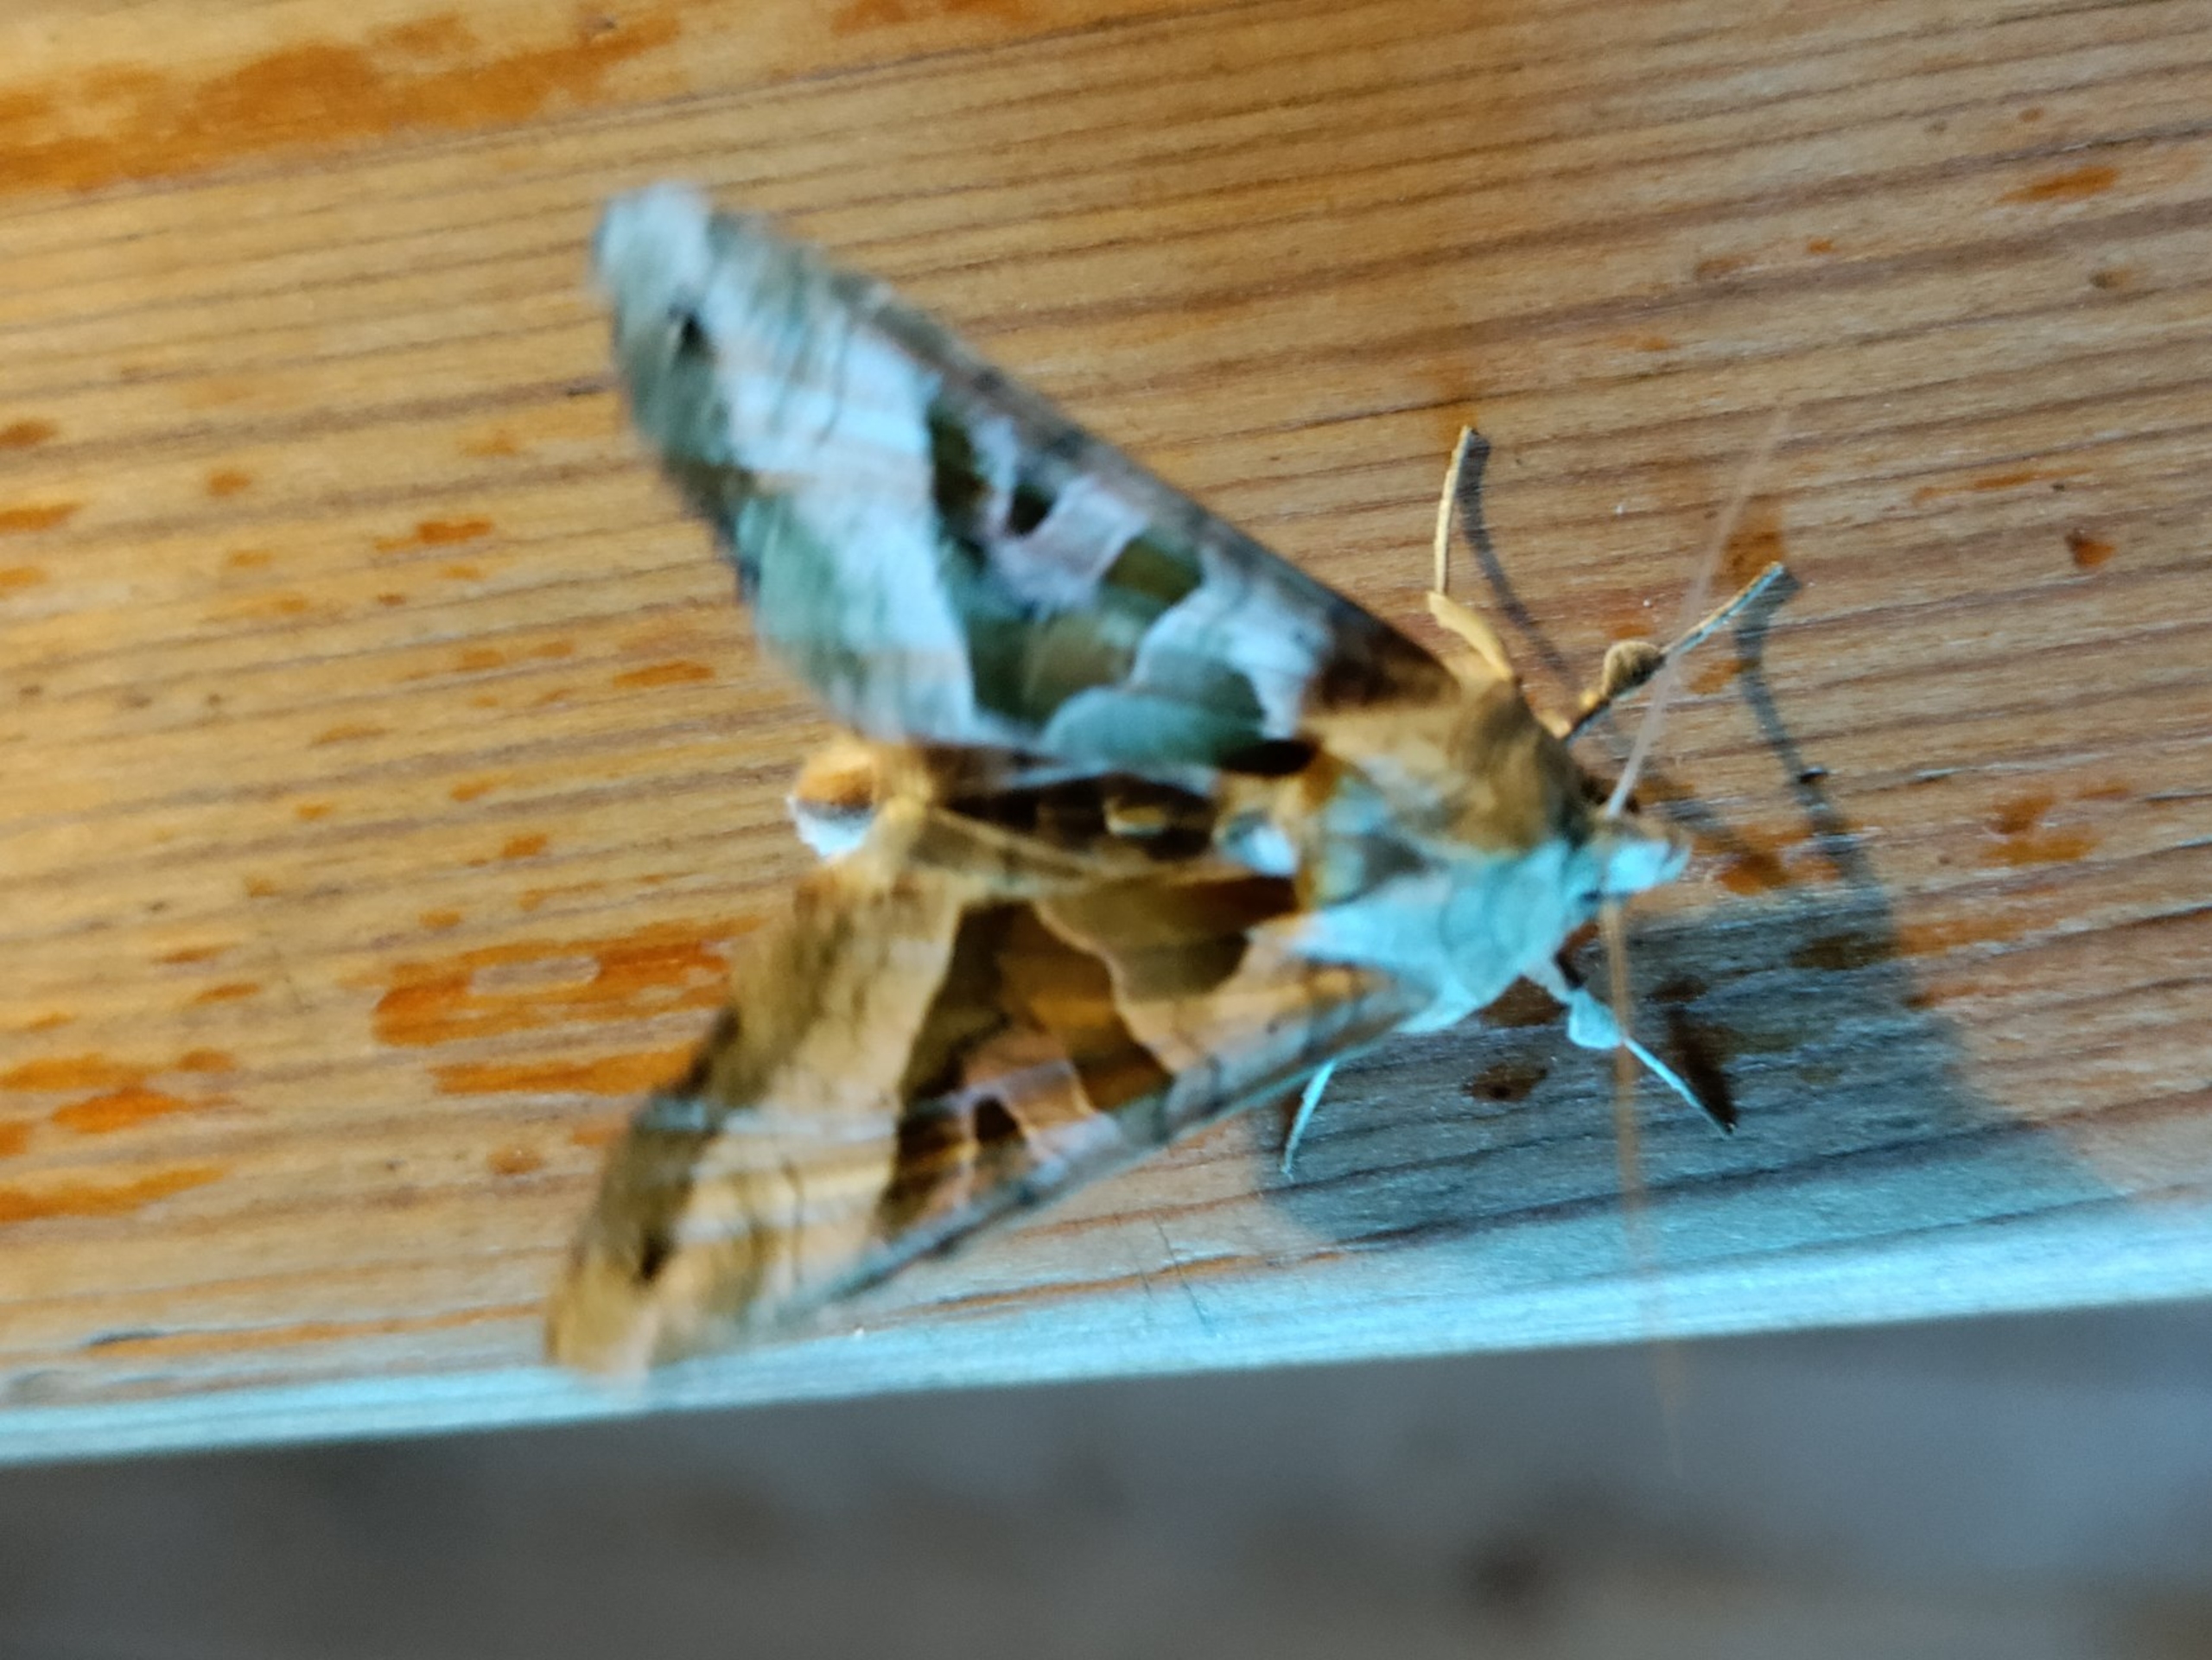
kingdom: Animalia
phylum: Arthropoda
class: Insecta
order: Lepidoptera
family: Noctuidae
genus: Phlogophora
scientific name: Phlogophora meticulosa
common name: Agatugle
